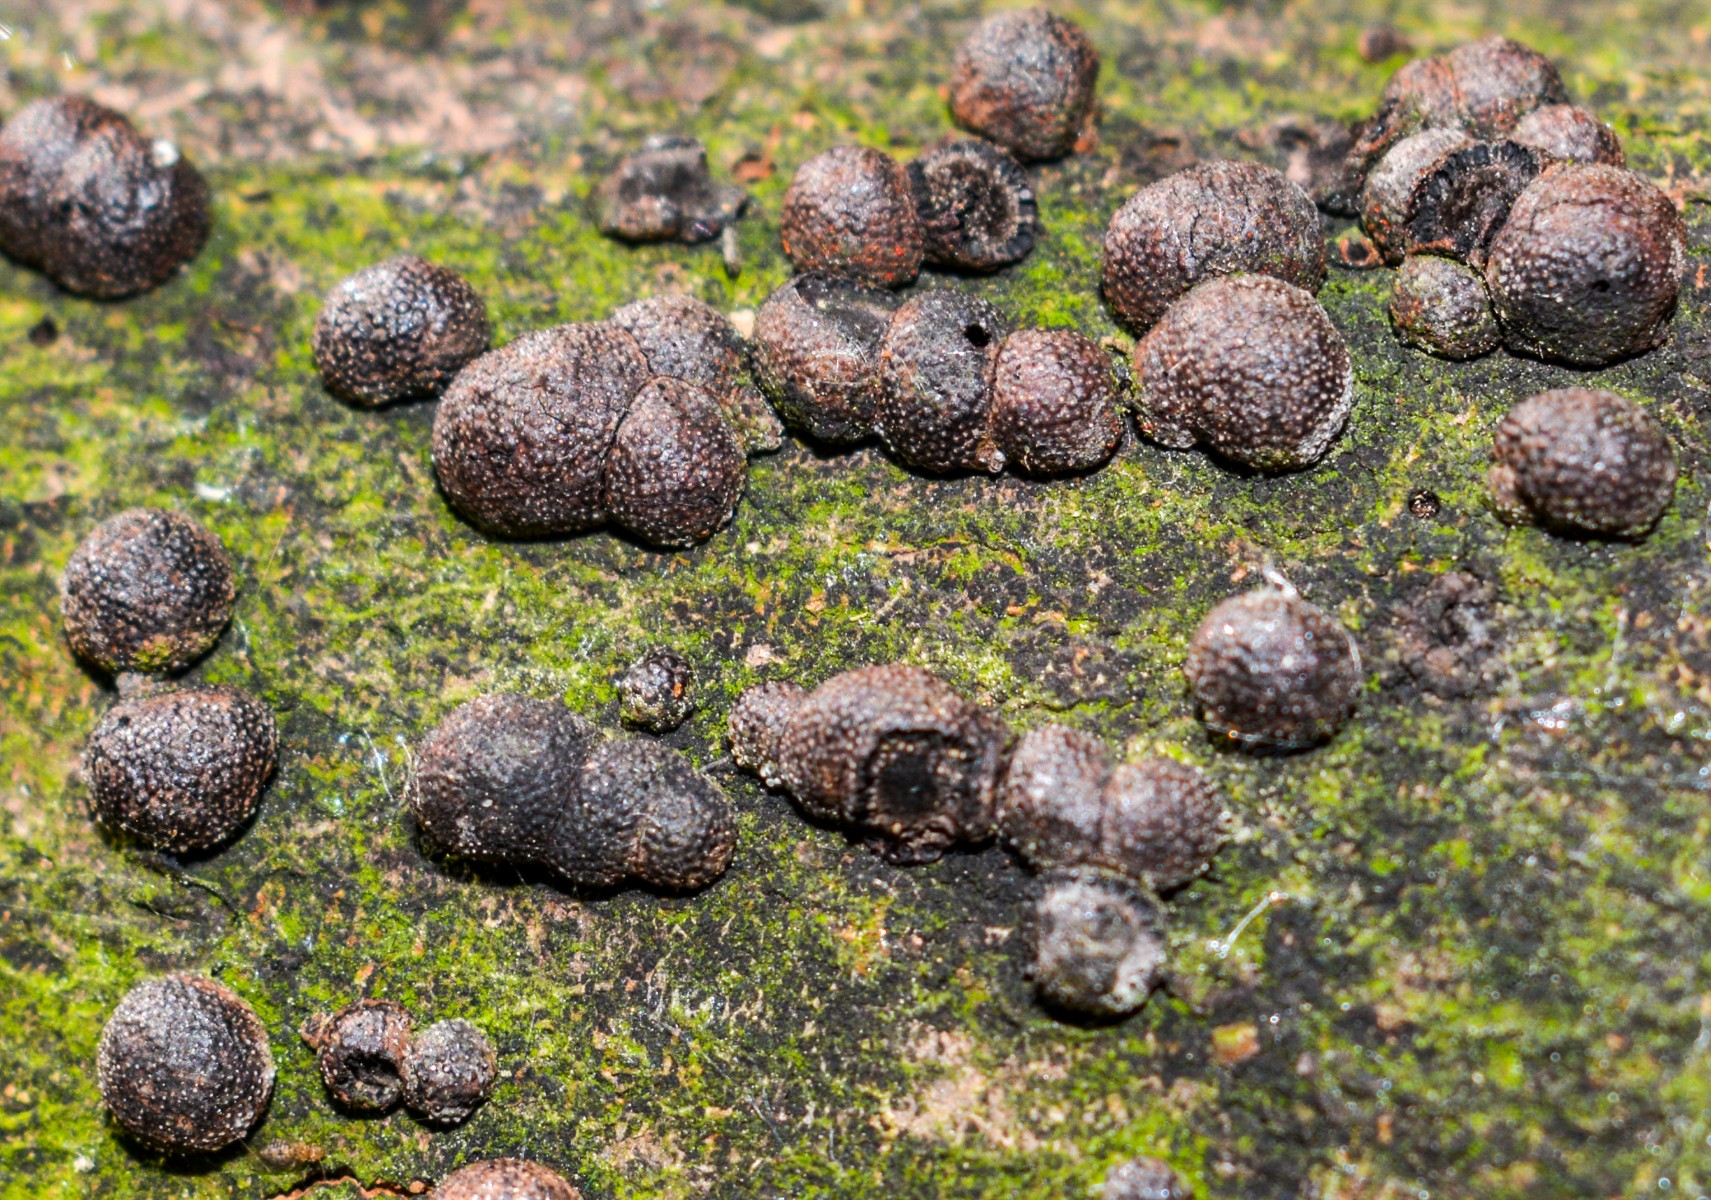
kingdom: Fungi
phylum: Ascomycota
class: Sordariomycetes
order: Xylariales
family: Hypoxylaceae
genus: Hypoxylon
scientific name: Hypoxylon fragiforme
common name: kuljordbær
